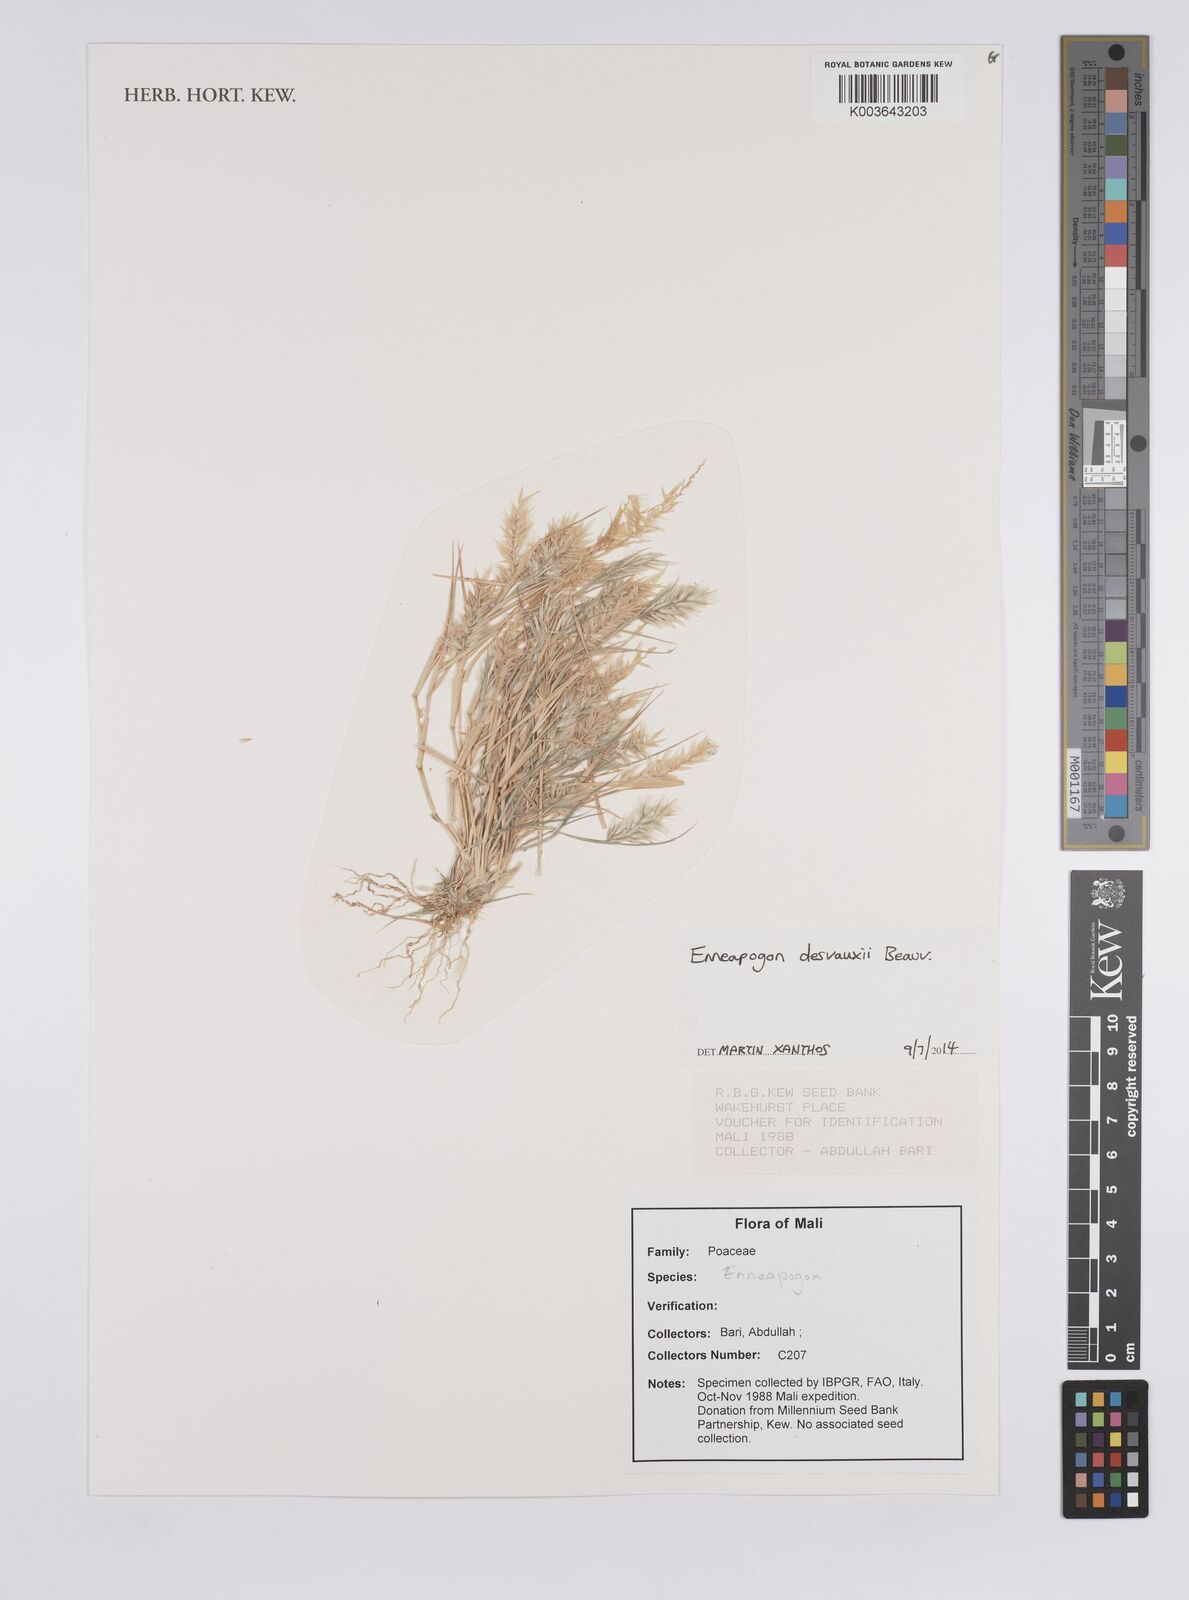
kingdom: Plantae
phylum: Tracheophyta
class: Liliopsida
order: Poales
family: Poaceae
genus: Enneapogon
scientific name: Enneapogon desvauxii
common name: Feather pappus grass
